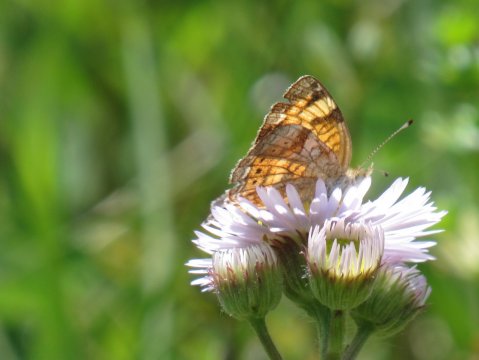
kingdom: Animalia
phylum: Arthropoda
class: Insecta
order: Lepidoptera
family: Nymphalidae
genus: Phyciodes
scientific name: Phyciodes tharos
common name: Pearl Crescent
